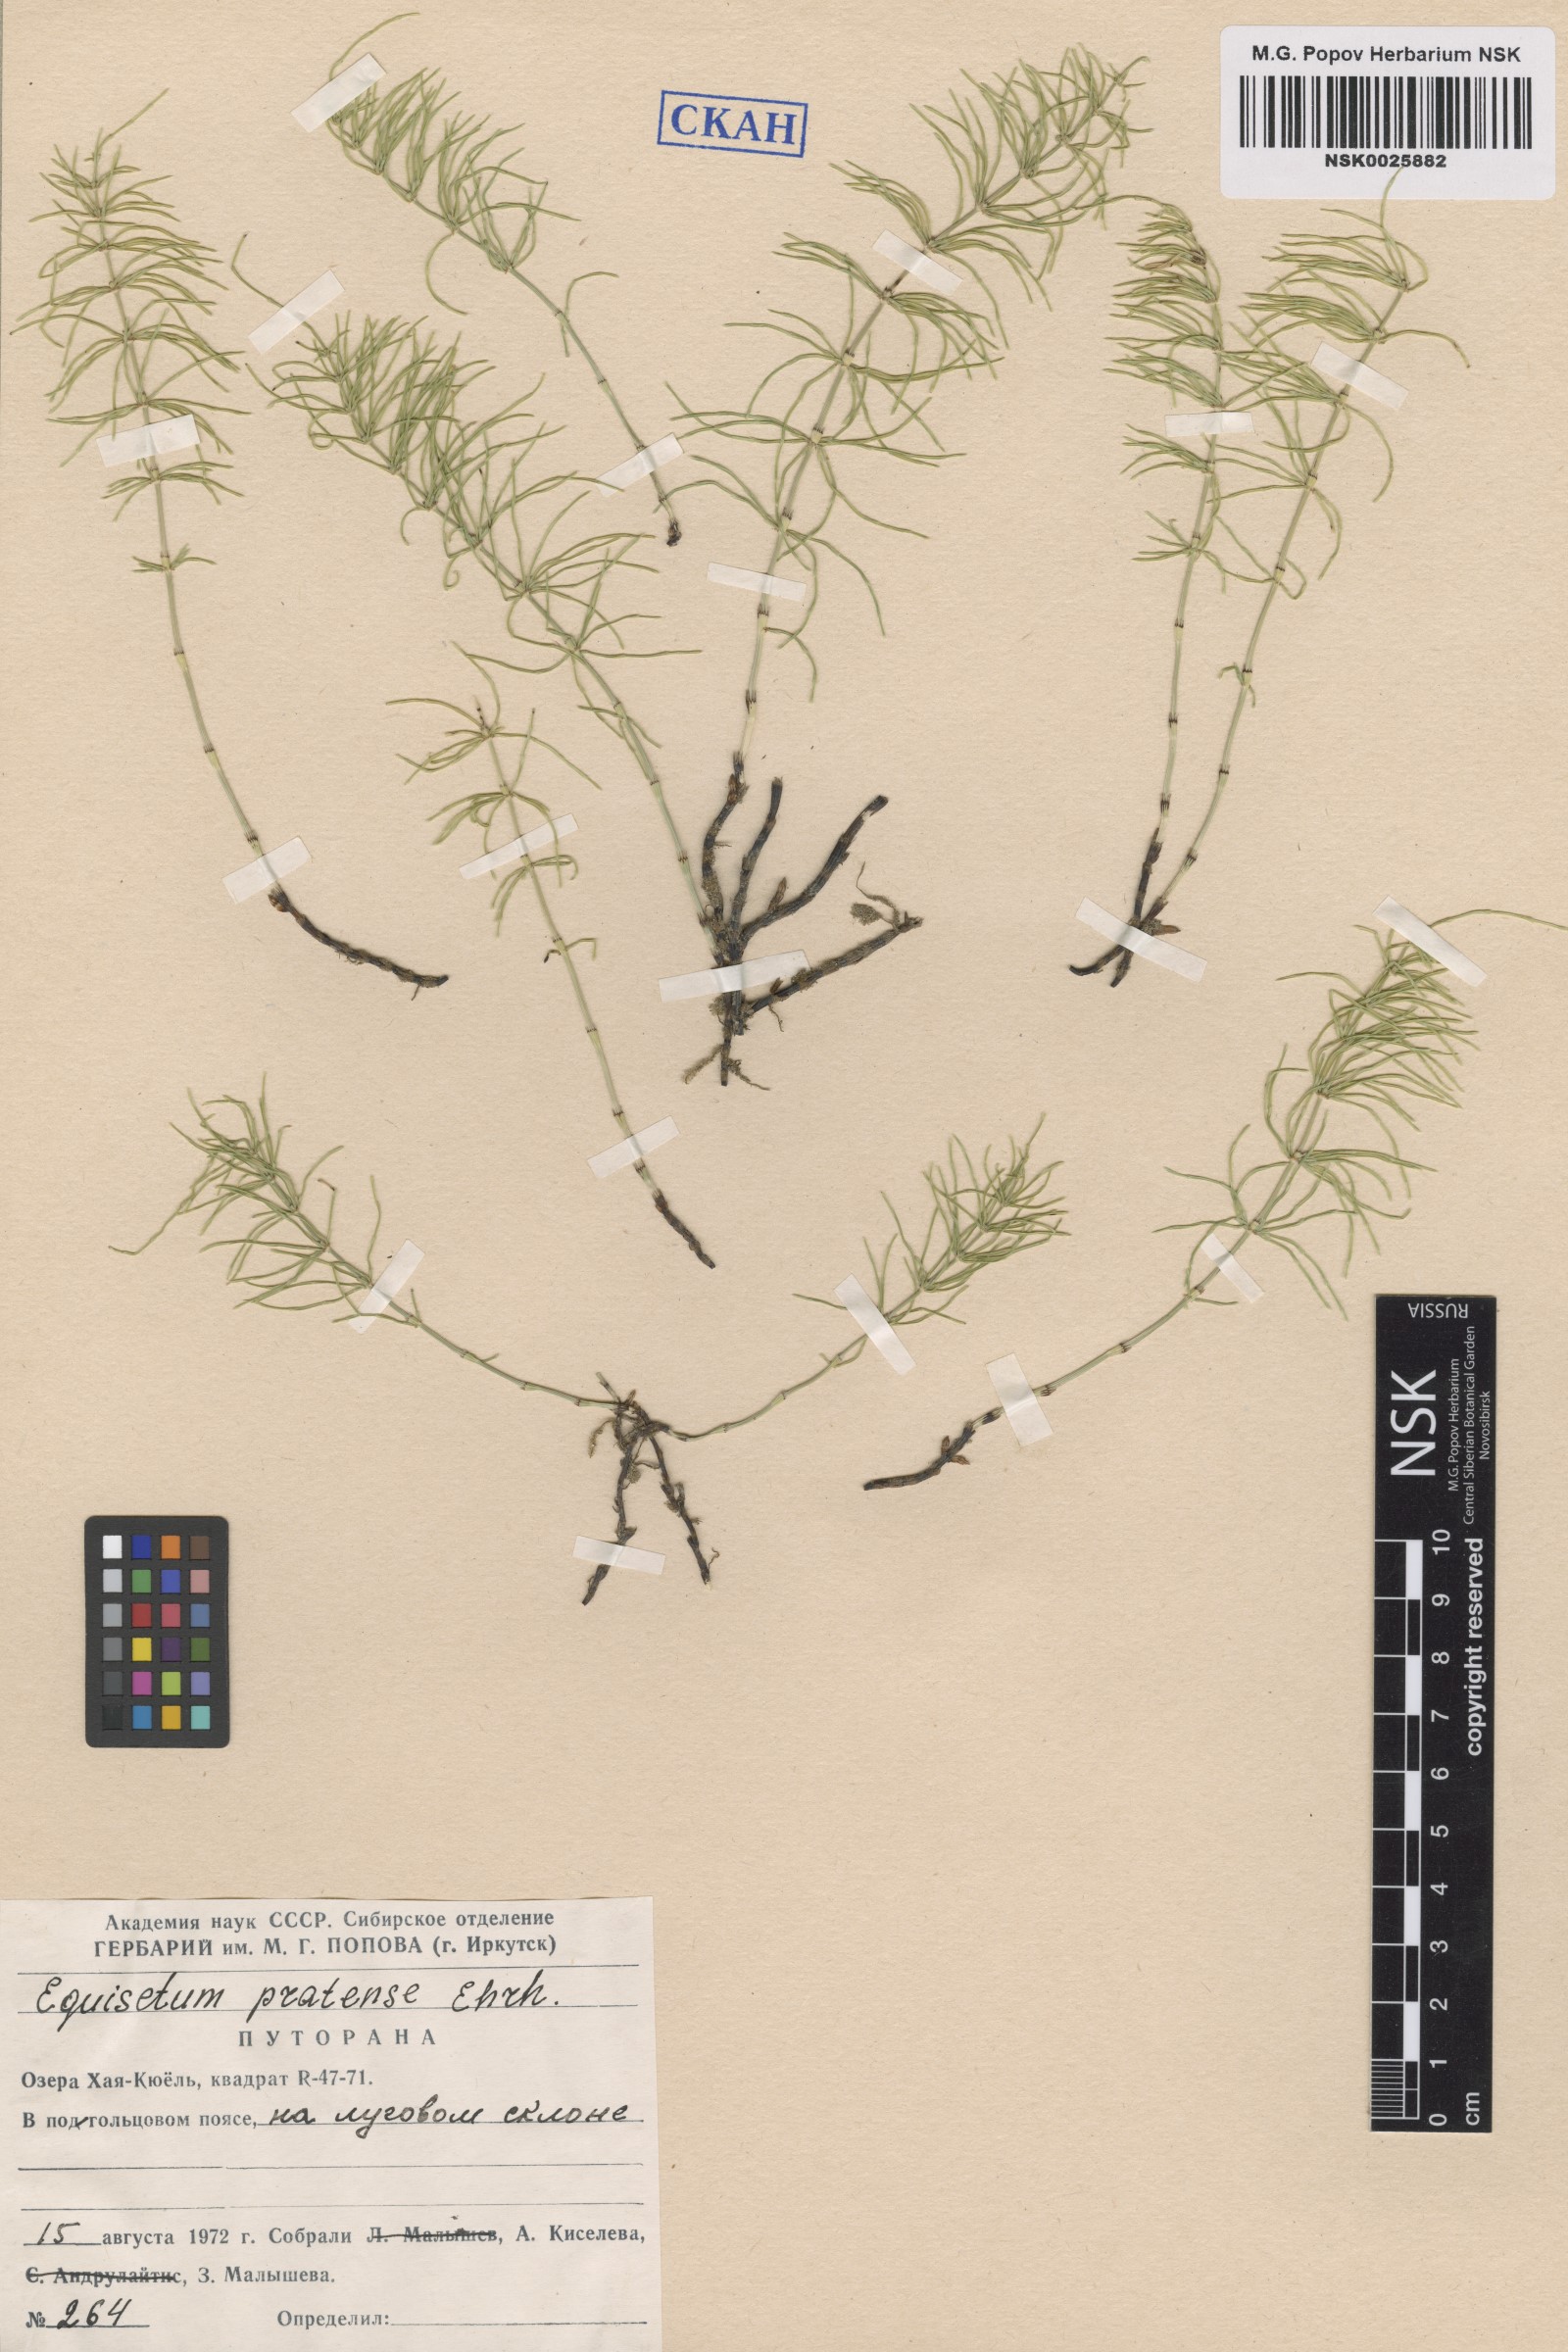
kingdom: Plantae
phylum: Tracheophyta
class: Polypodiopsida
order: Equisetales
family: Equisetaceae
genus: Equisetum
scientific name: Equisetum pratense
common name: Meadow horsetail
